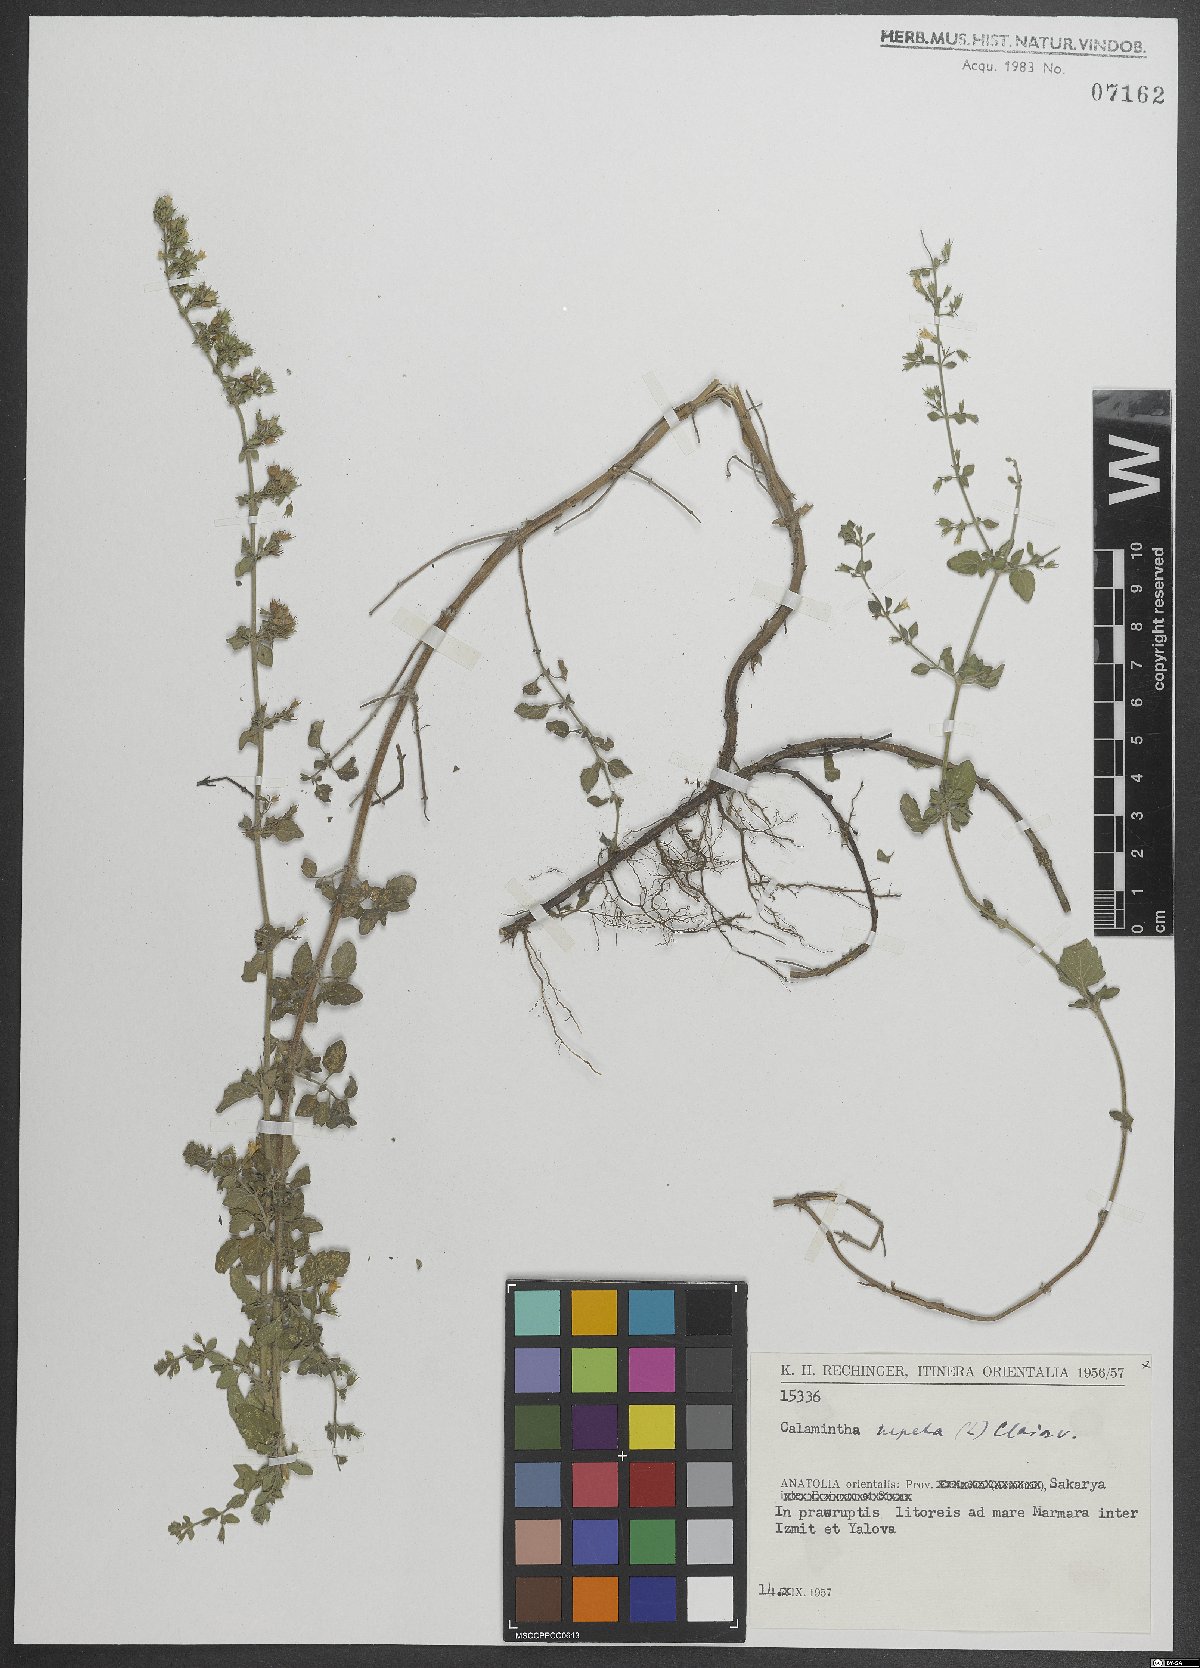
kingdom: Plantae
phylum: Tracheophyta
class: Magnoliopsida
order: Lamiales
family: Lamiaceae
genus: Clinopodium
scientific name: Clinopodium nepeta
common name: Lesser calamint
